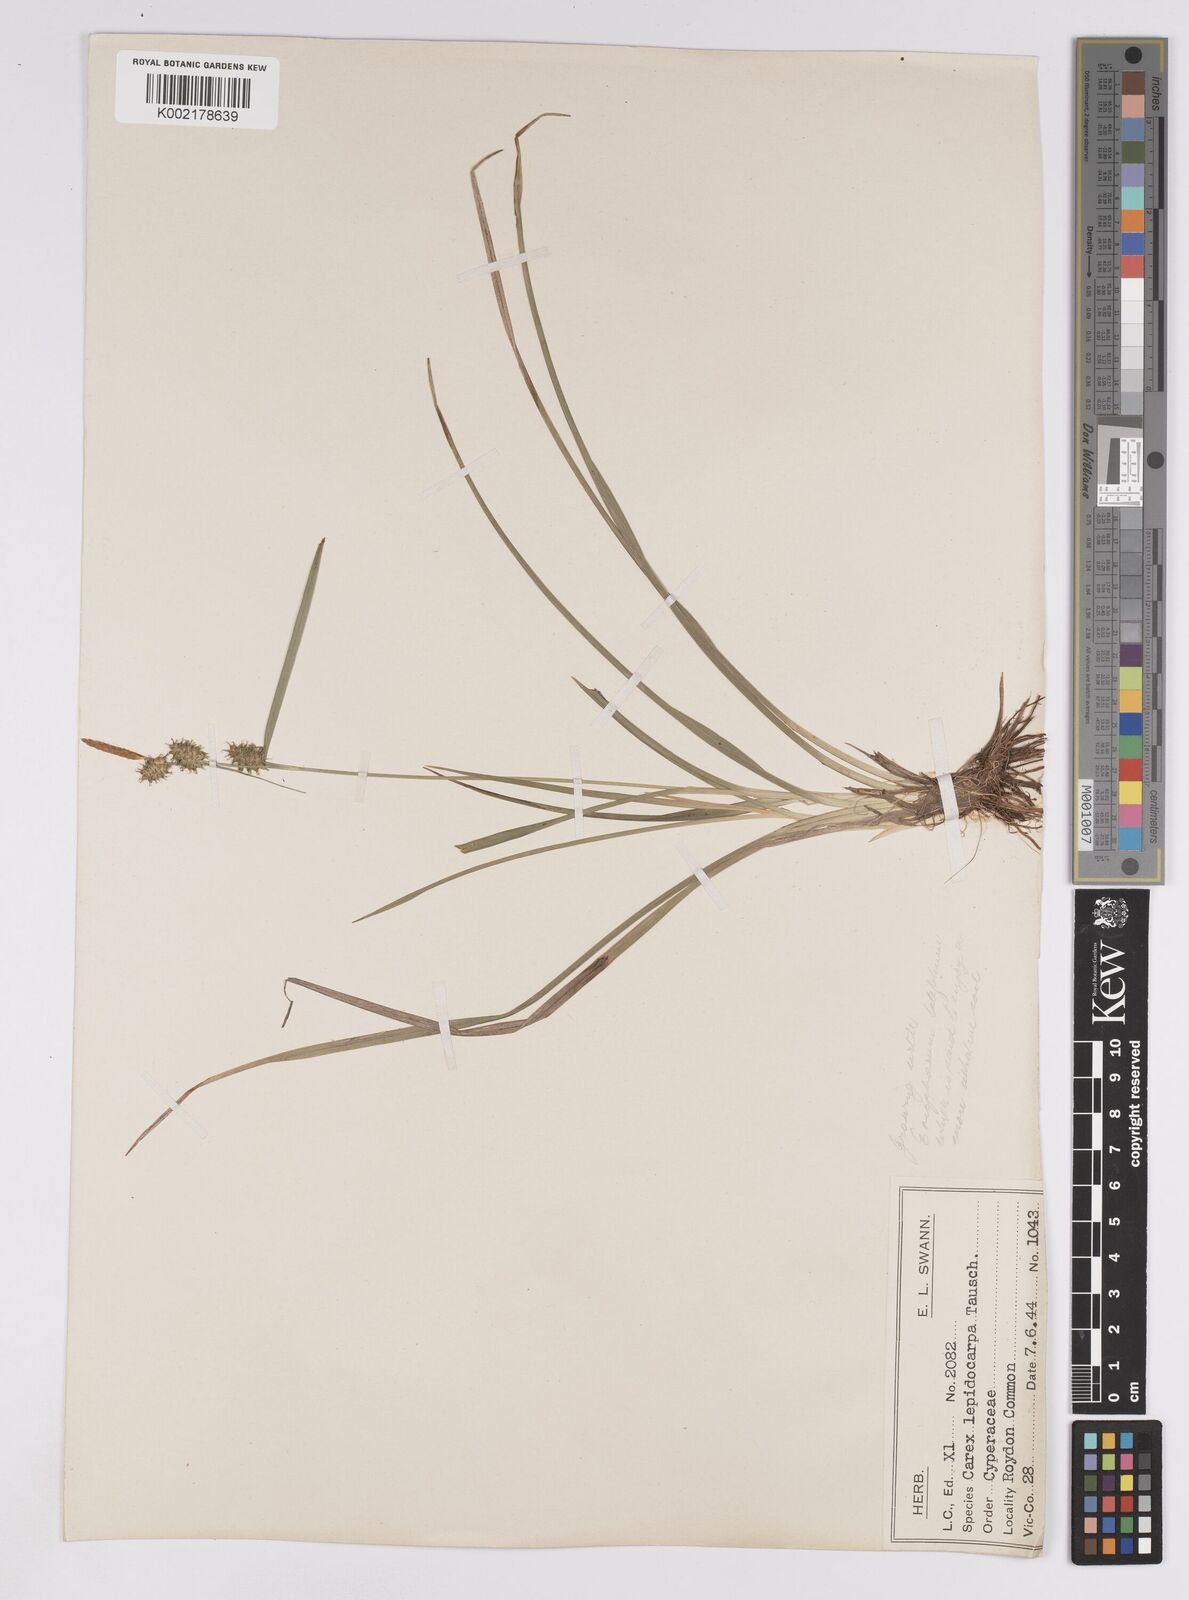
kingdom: Plantae
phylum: Tracheophyta
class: Liliopsida
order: Poales
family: Cyperaceae
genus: Carex
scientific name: Carex lepidocarpa
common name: Long-stalked yellow-sedge
